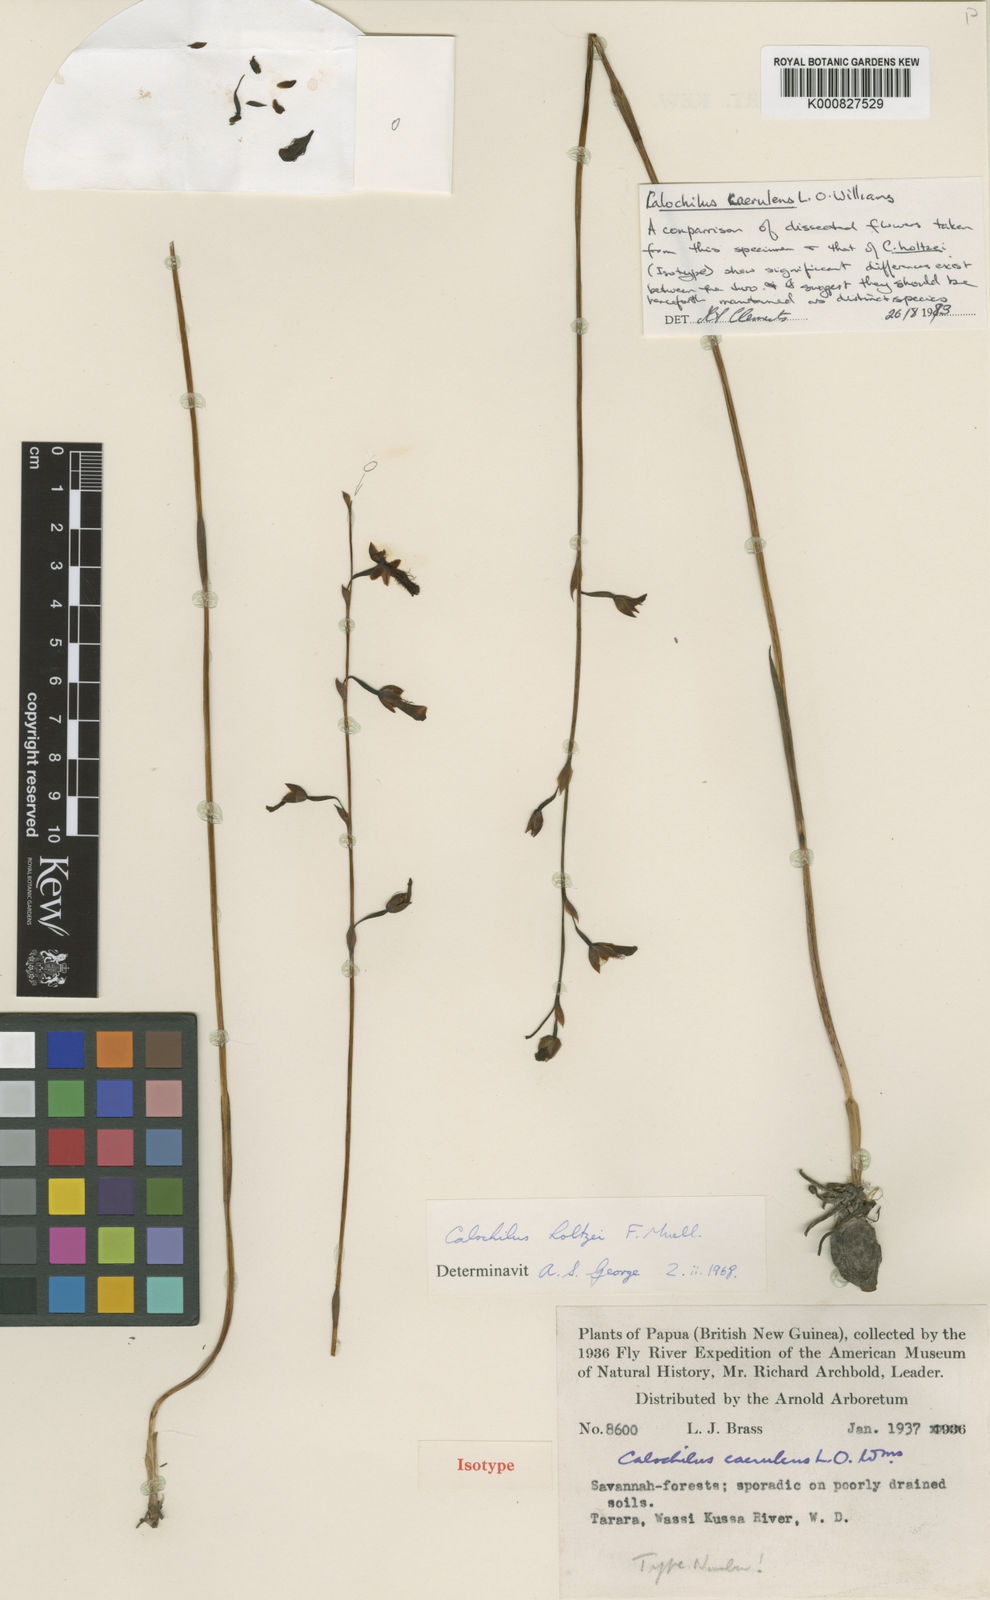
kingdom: Plantae
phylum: Tracheophyta
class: Liliopsida
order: Asparagales
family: Orchidaceae
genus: Calochilus
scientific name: Calochilus caeruleus
